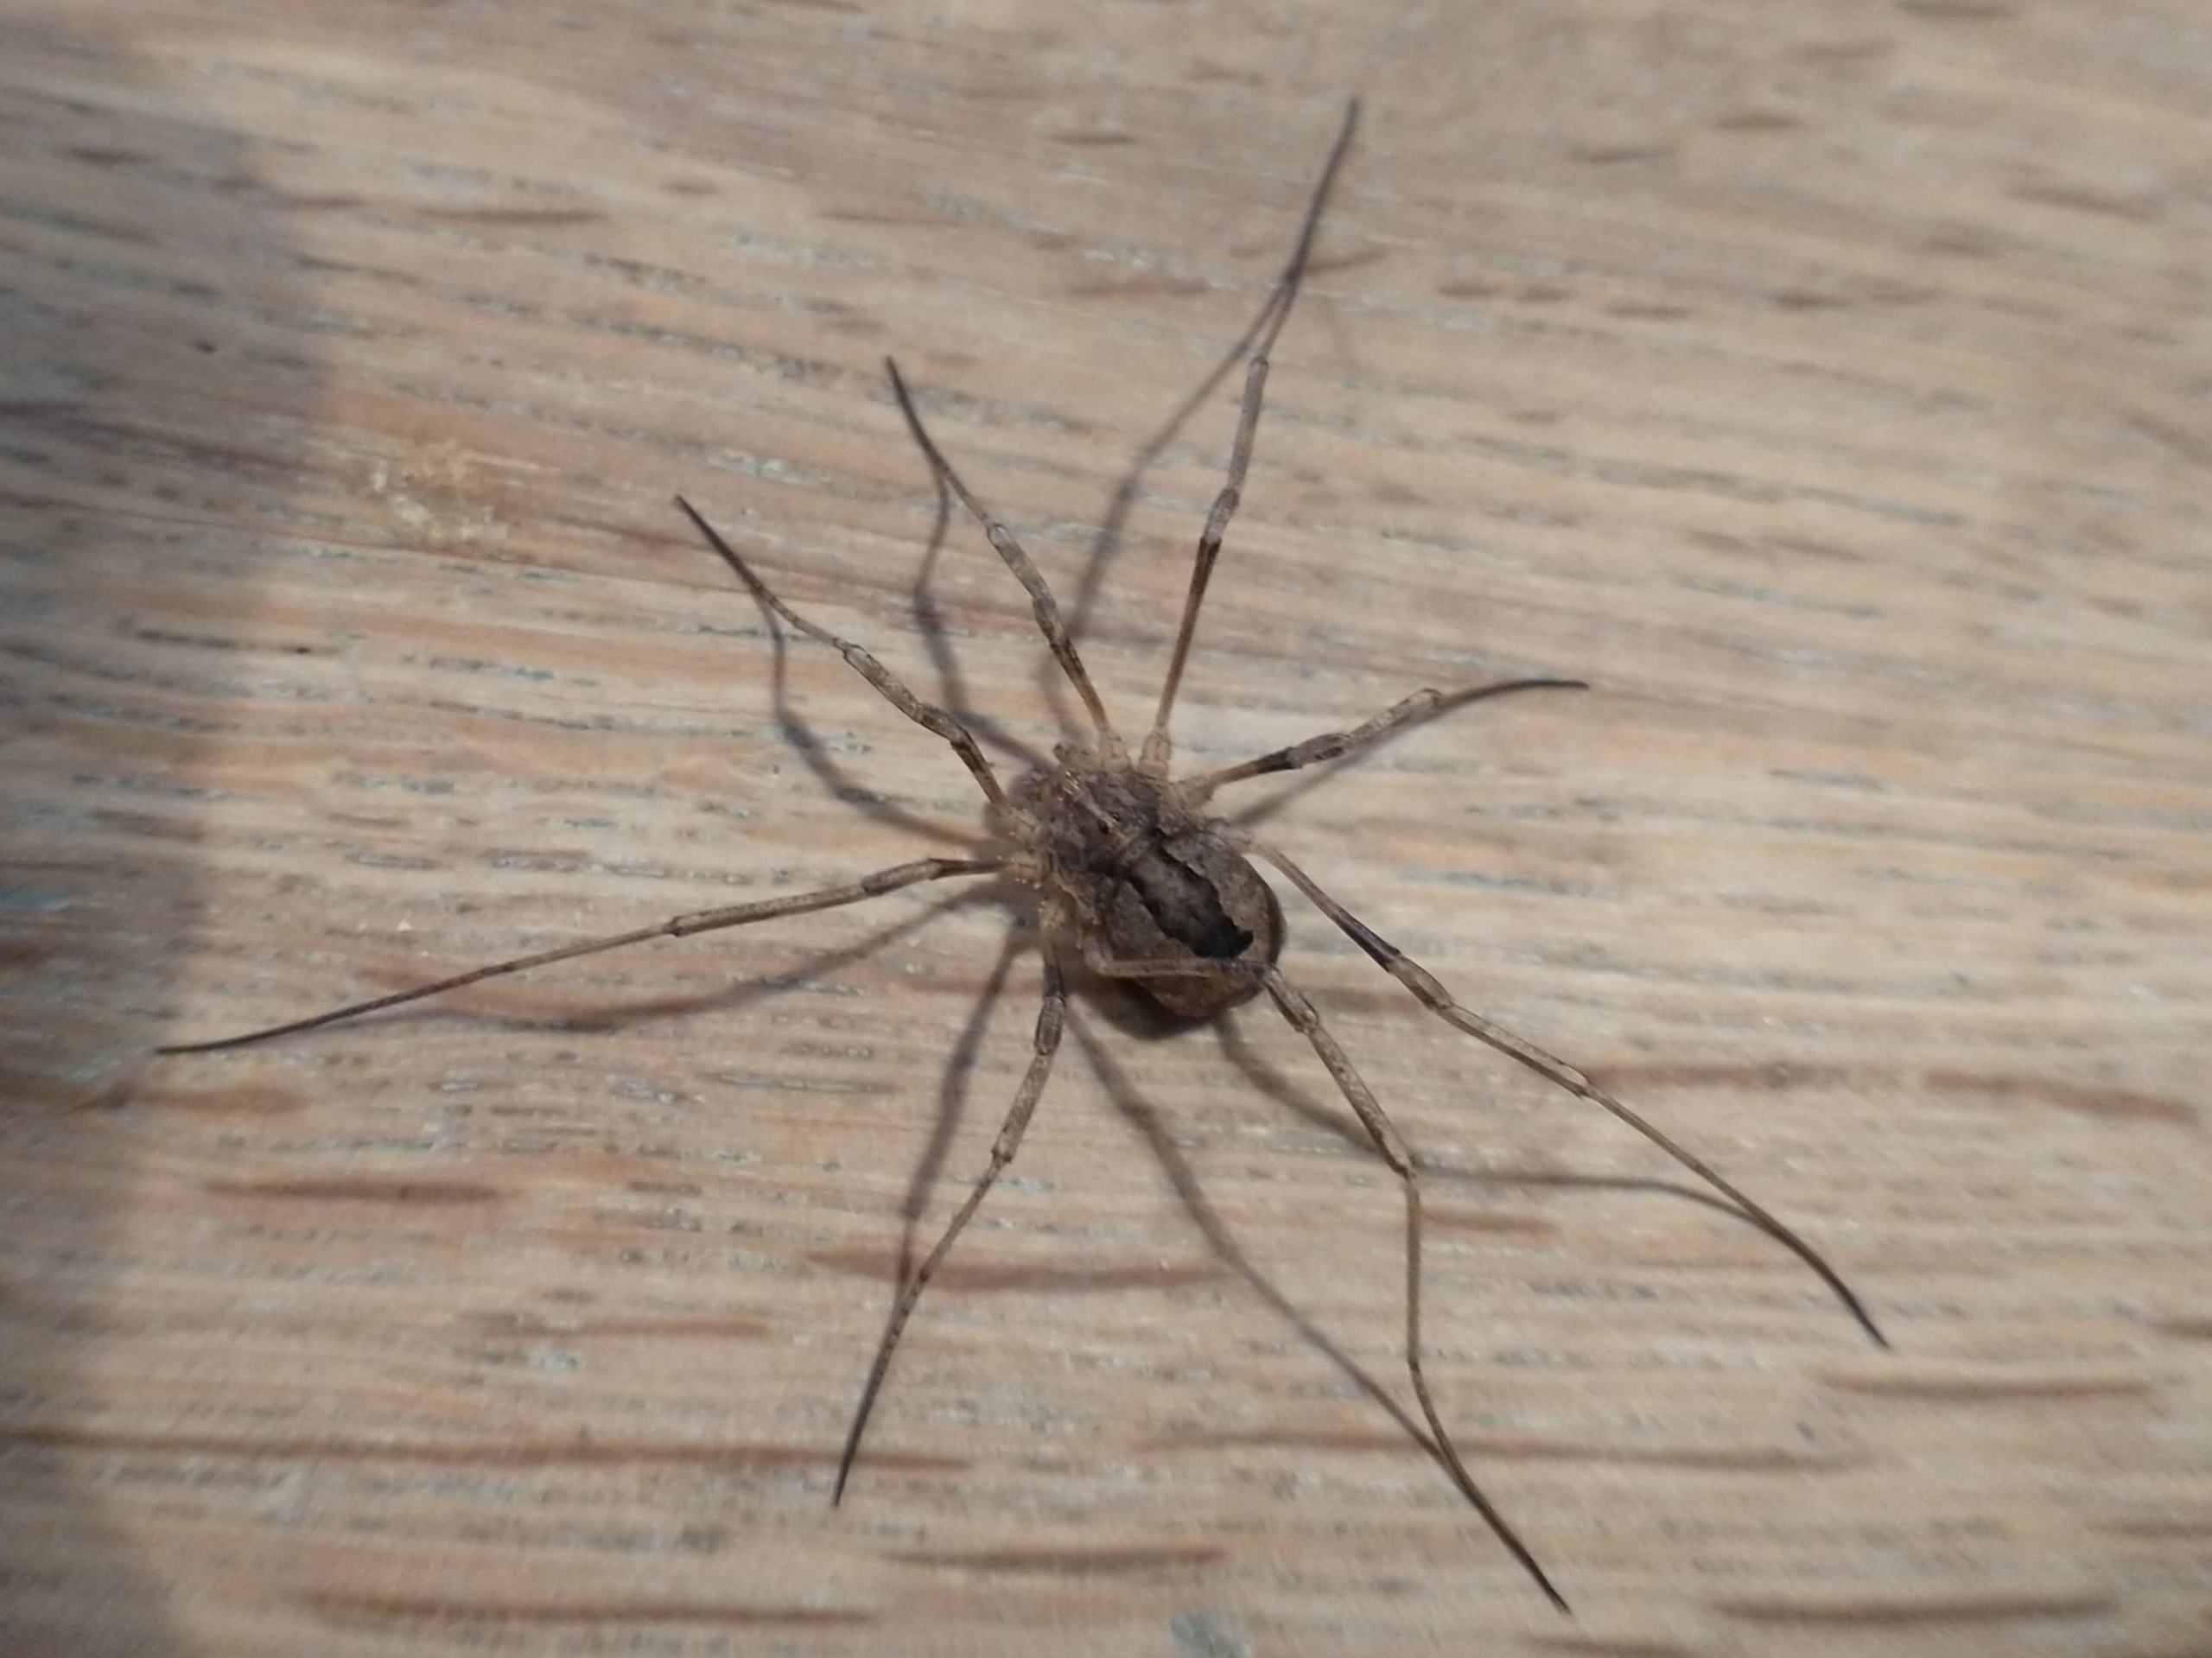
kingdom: Animalia
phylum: Arthropoda
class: Arachnida
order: Opiliones
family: Phalangiidae
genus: Odiellus
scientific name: Odiellus spinosus
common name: Kæmpemejer
